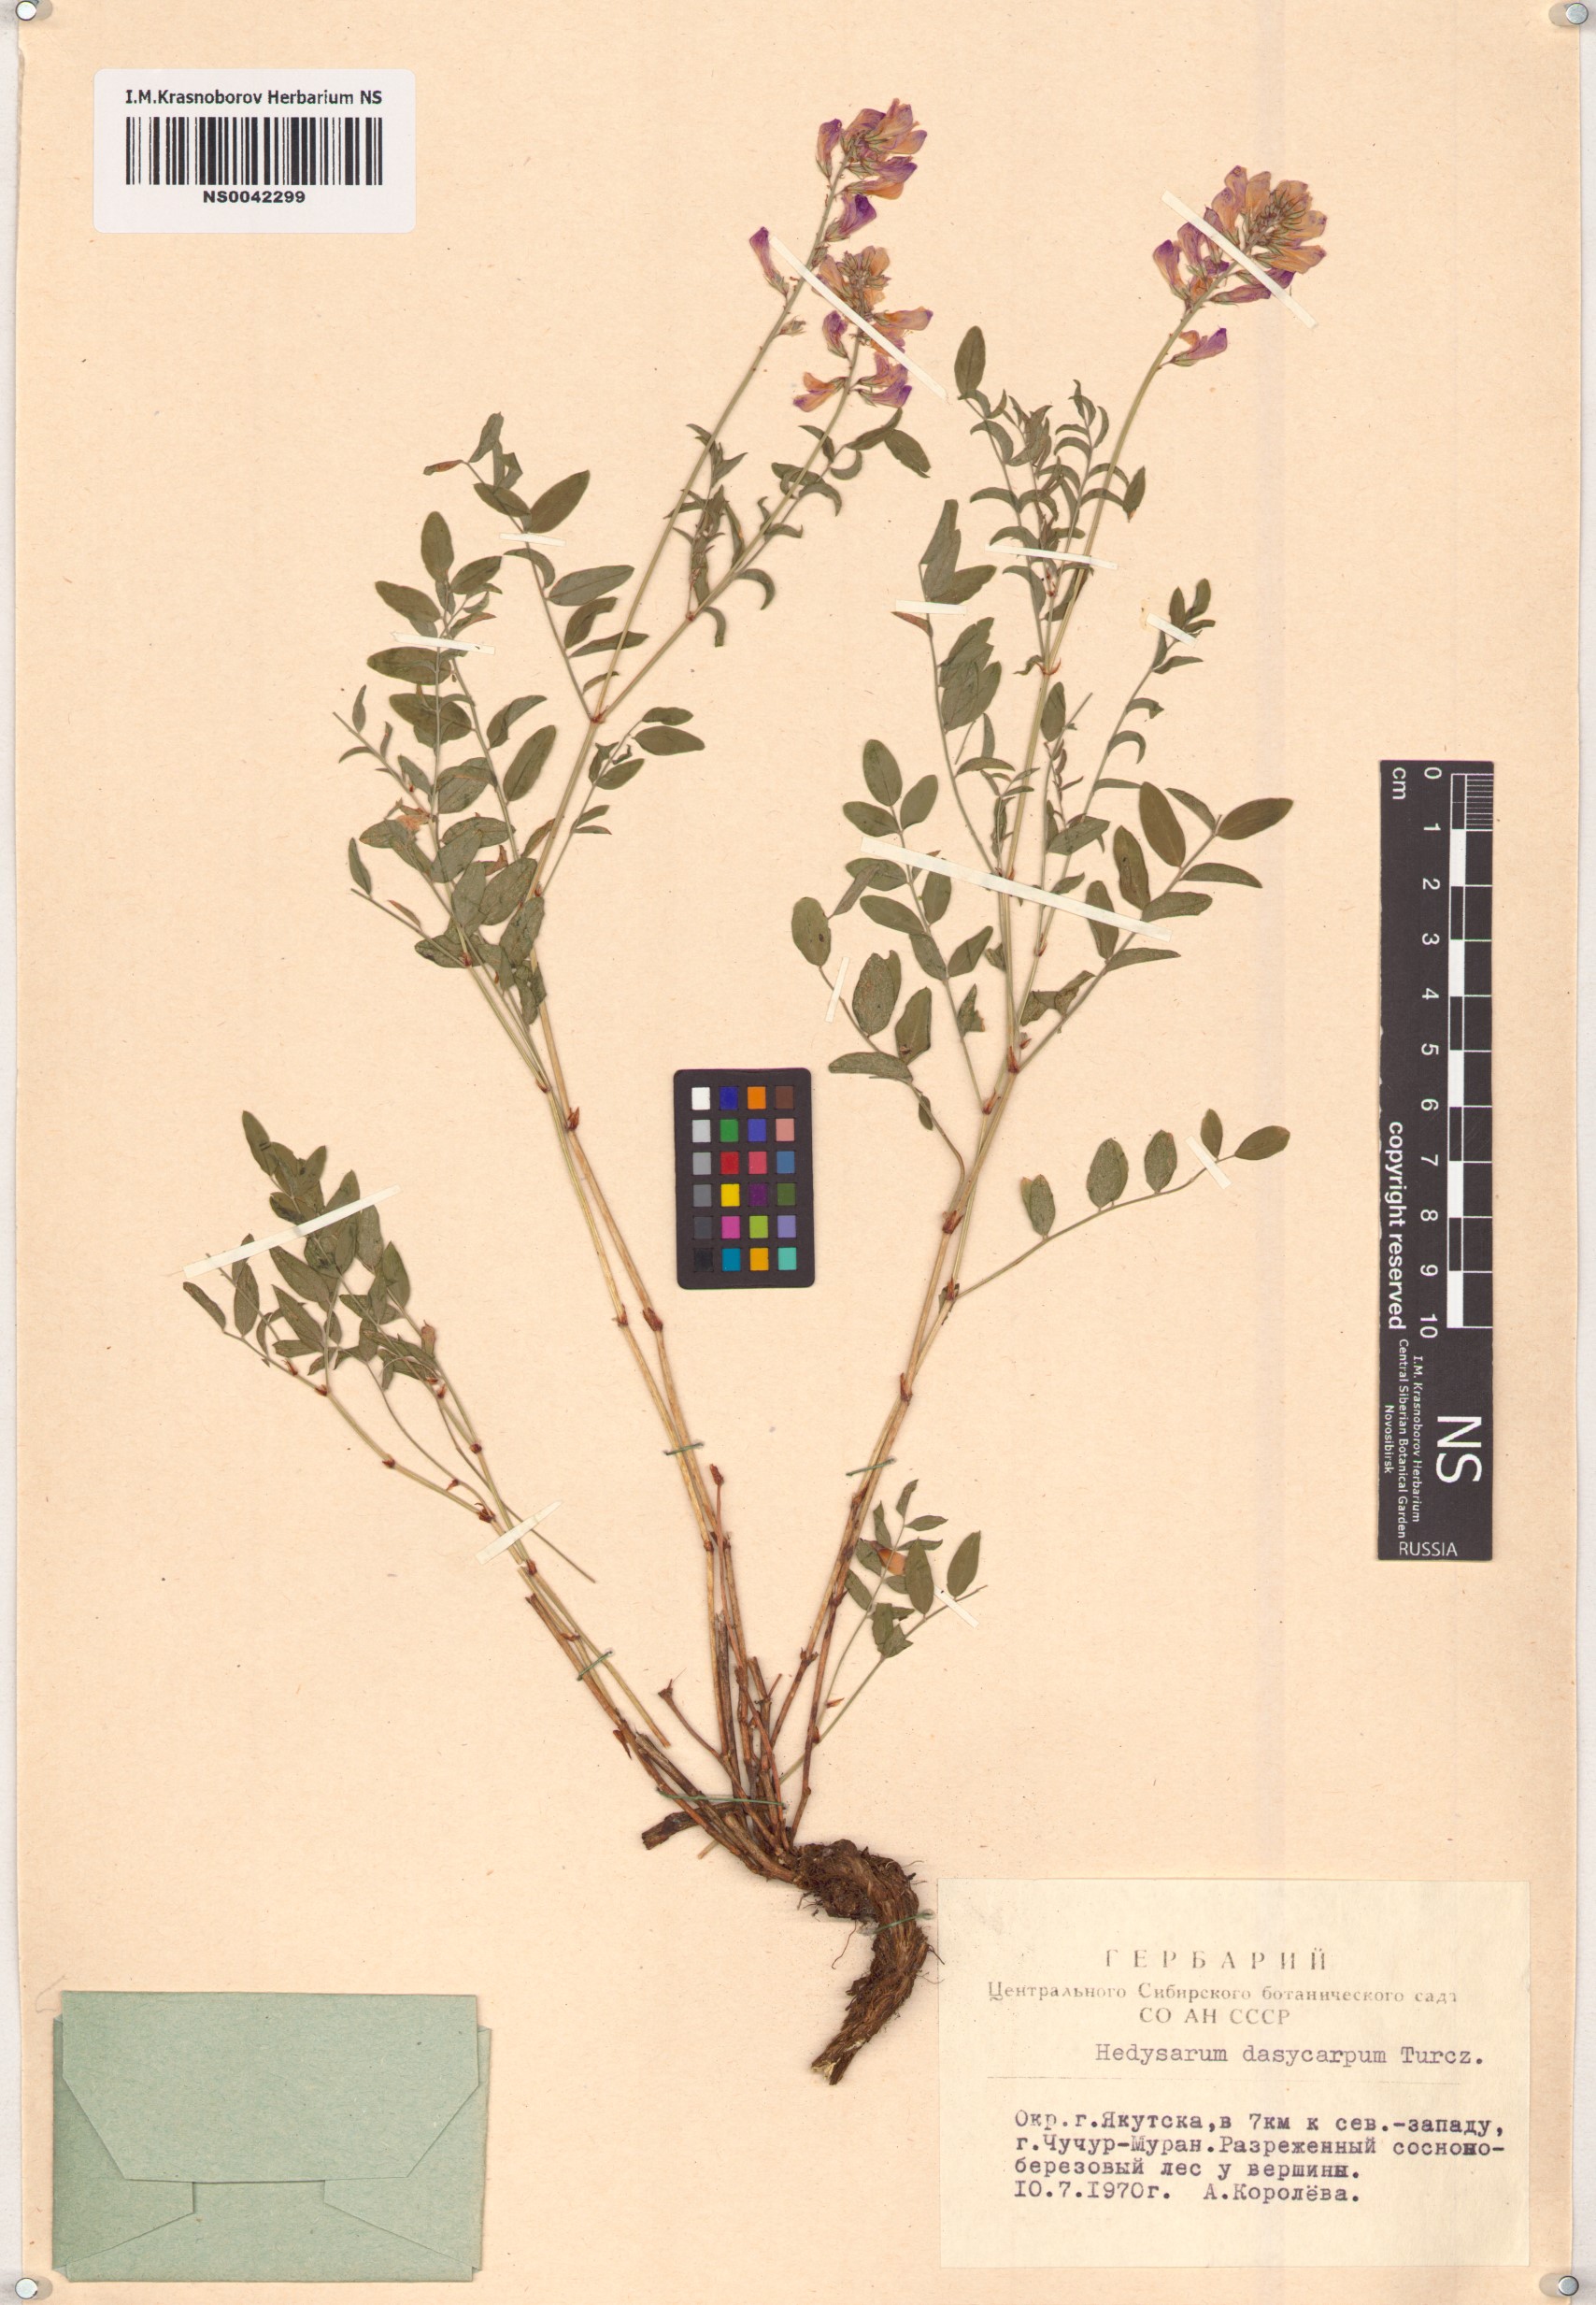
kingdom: Plantae
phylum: Tracheophyta
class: Magnoliopsida
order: Fabales
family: Fabaceae
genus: Hedysarum
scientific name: Hedysarum dasycarpum
